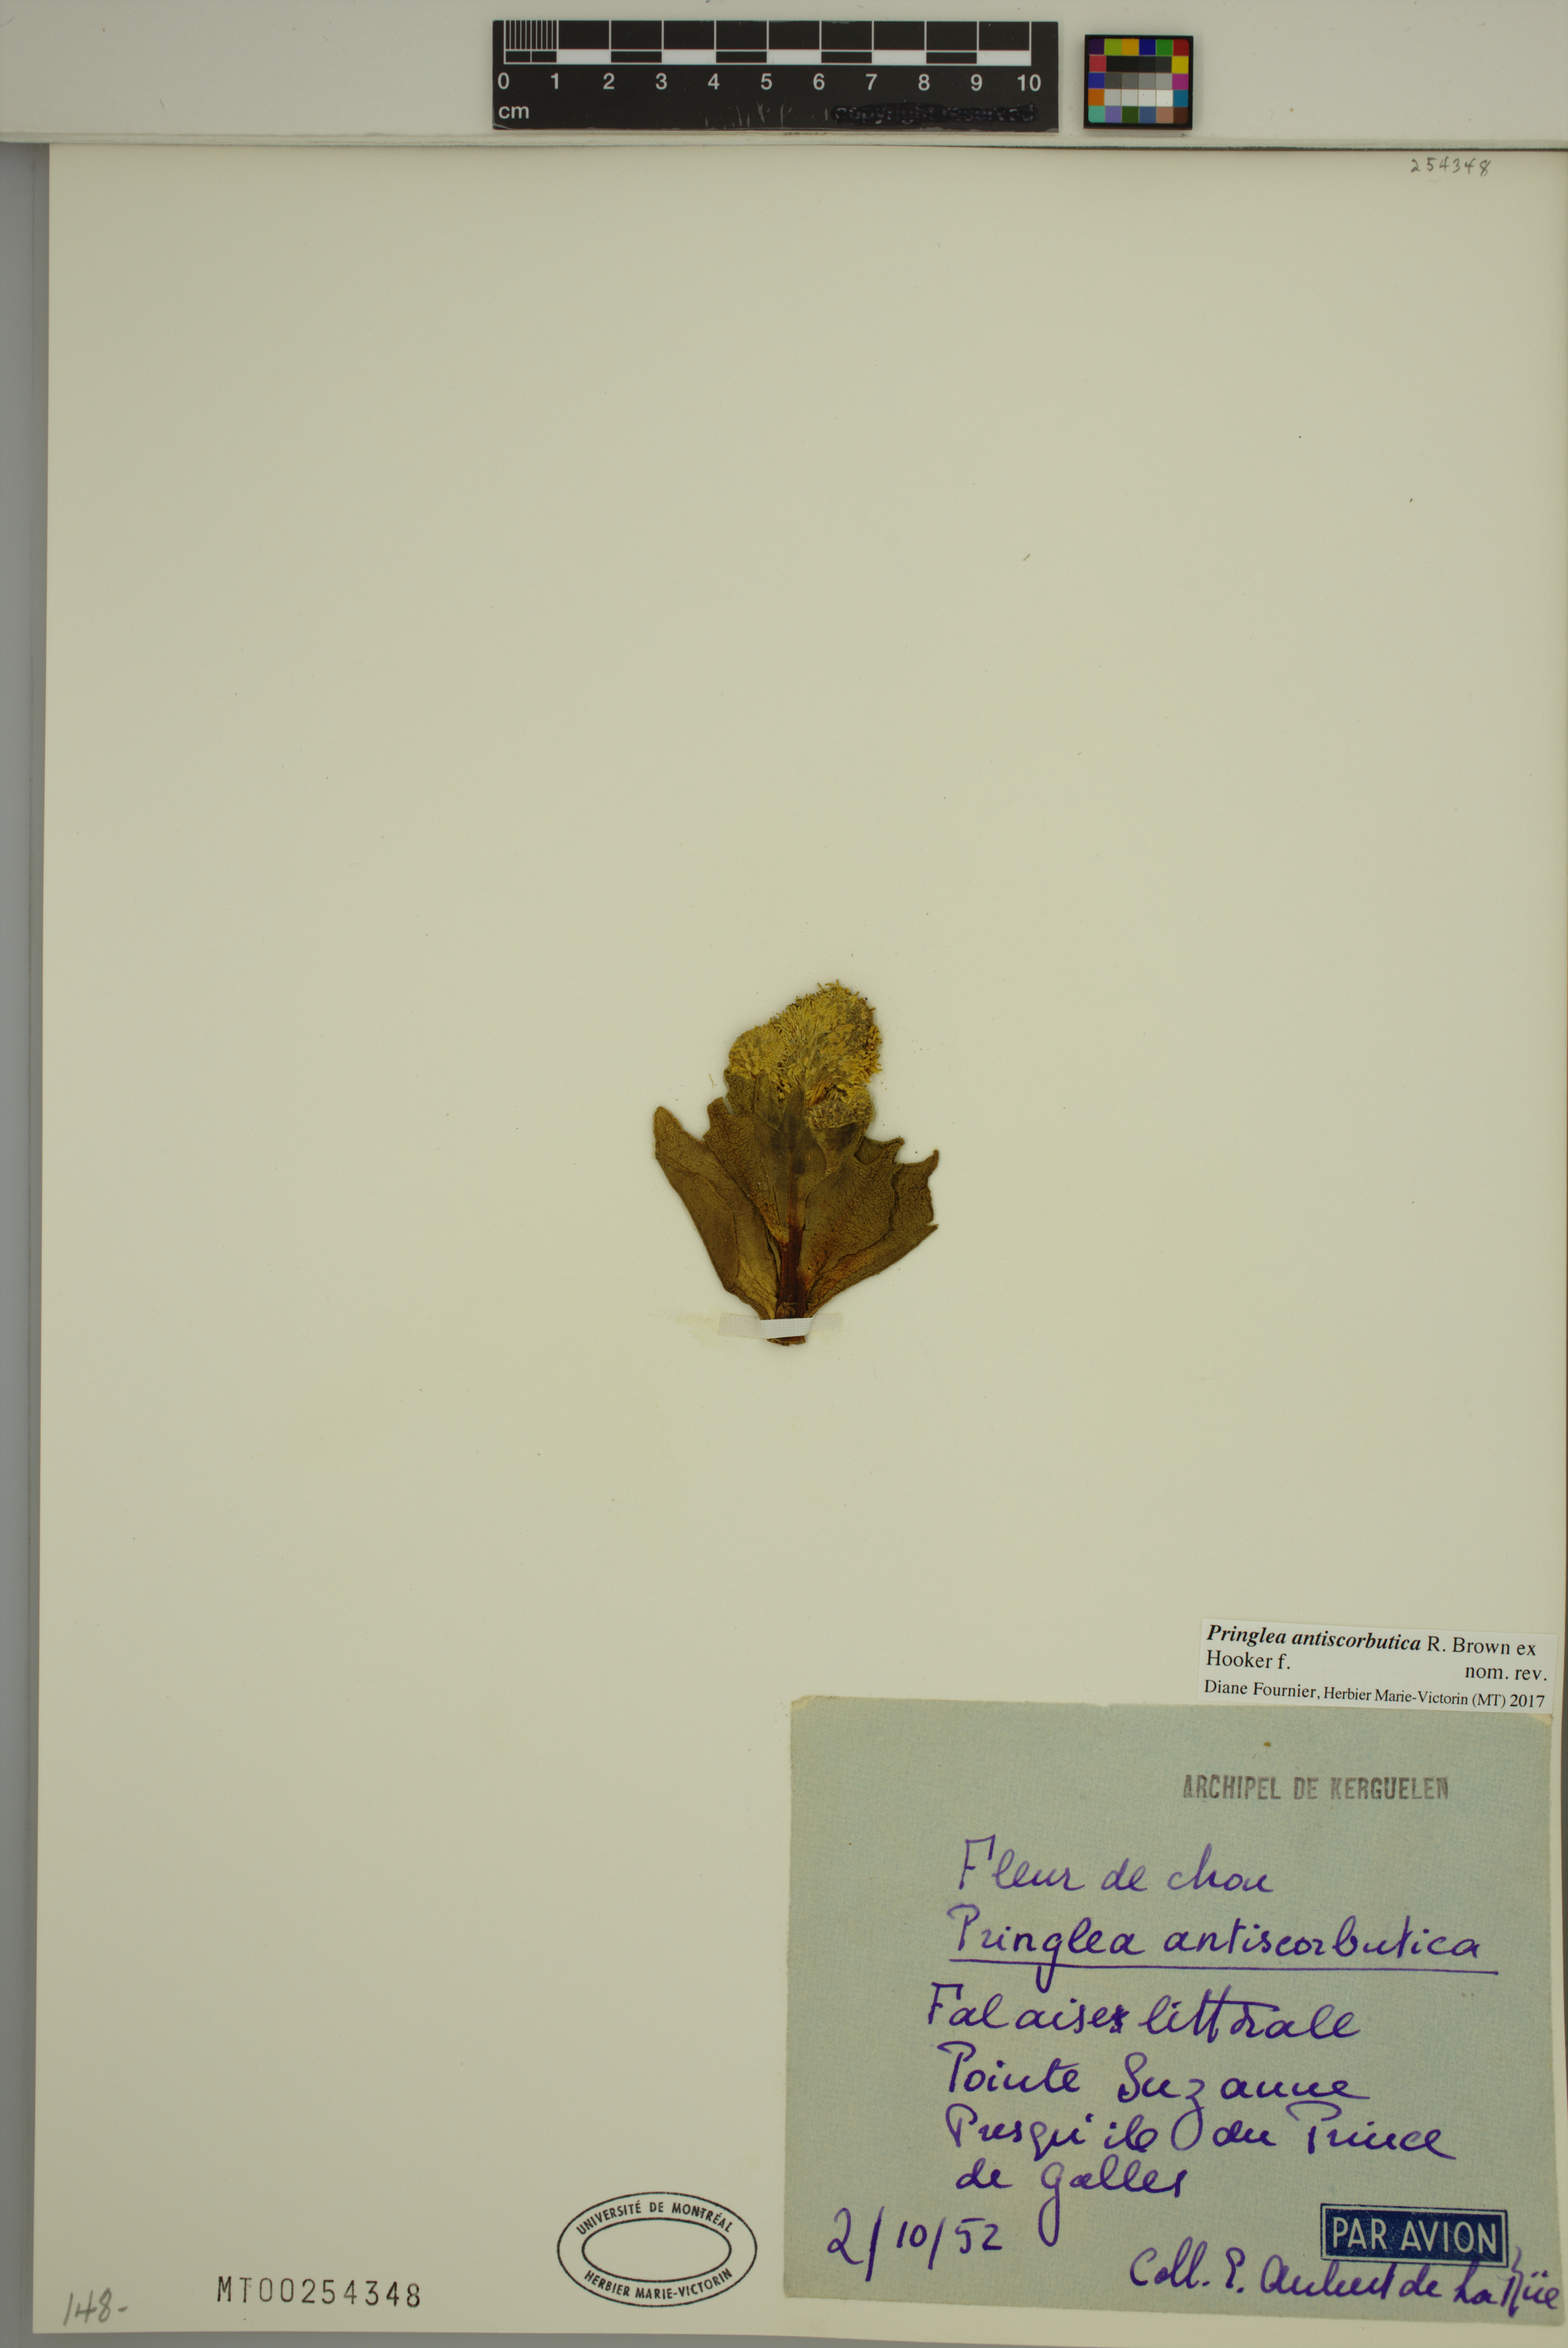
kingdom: Plantae
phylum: Tracheophyta
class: Magnoliopsida
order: Brassicales
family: Brassicaceae
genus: Pringlea
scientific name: Pringlea antiscorbutica
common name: Kerguelen-cabbage
